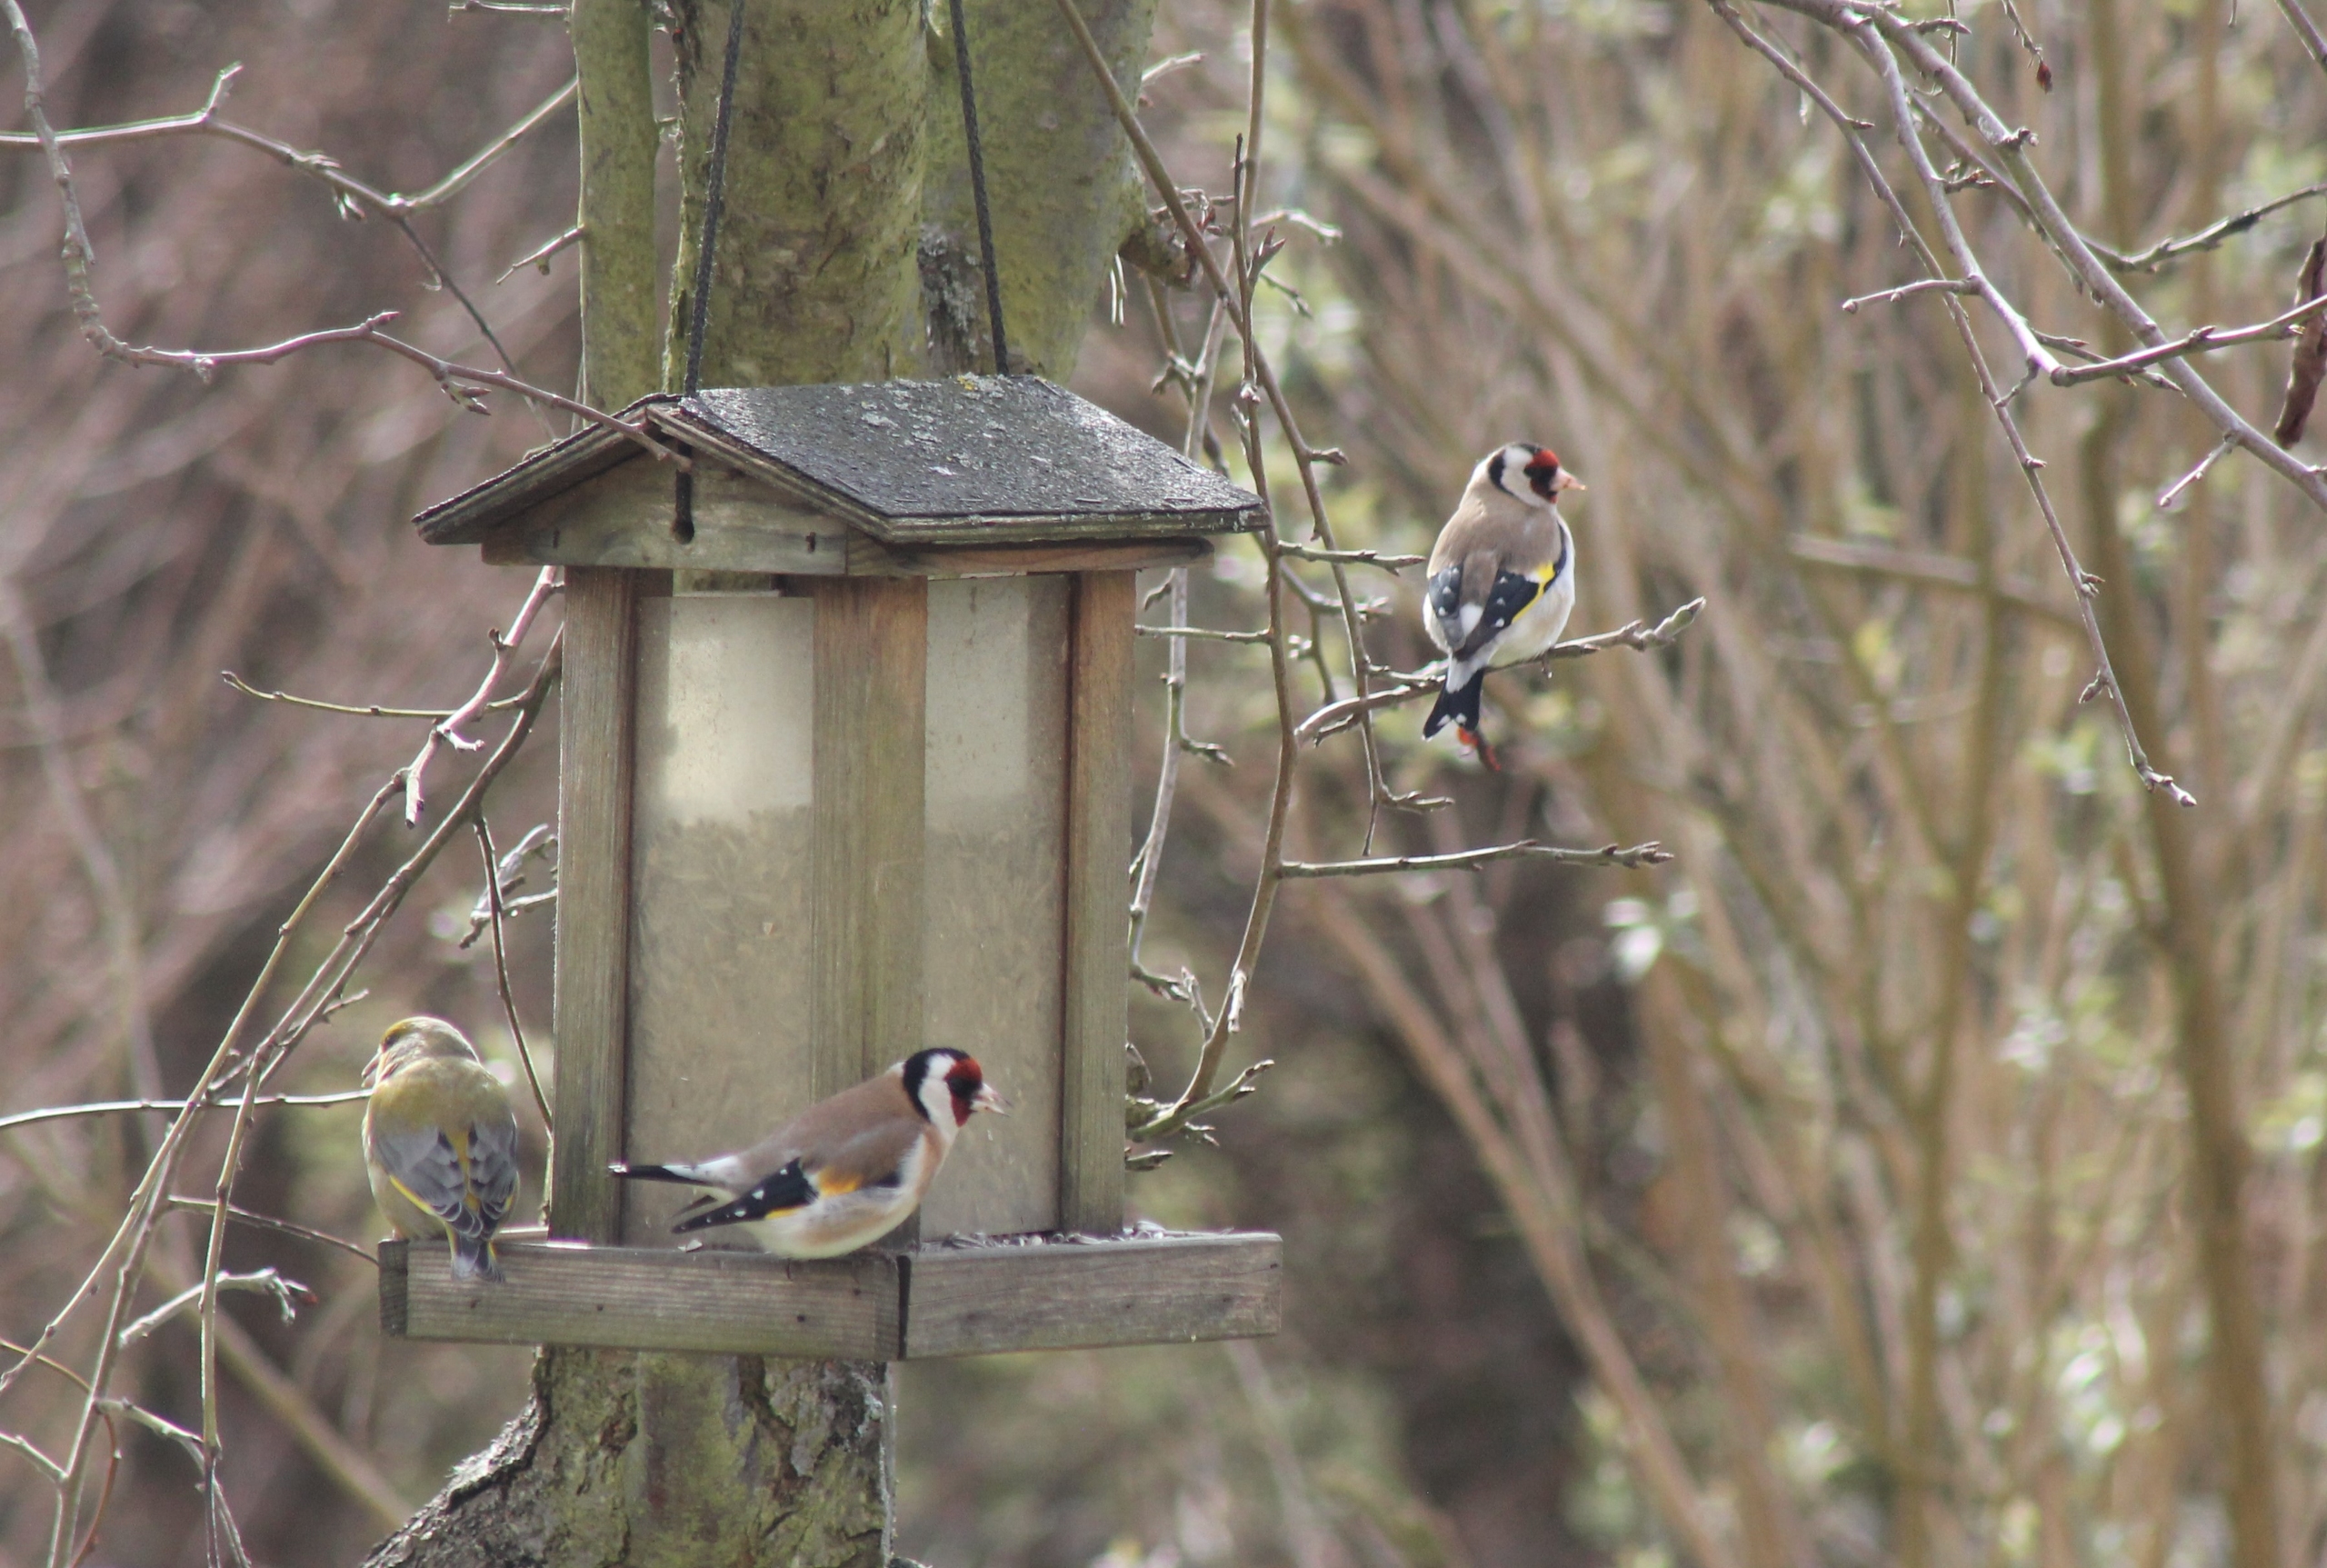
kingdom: Animalia
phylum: Chordata
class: Aves
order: Passeriformes
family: Fringillidae
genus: Carduelis
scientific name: Carduelis carduelis
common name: Stillits
